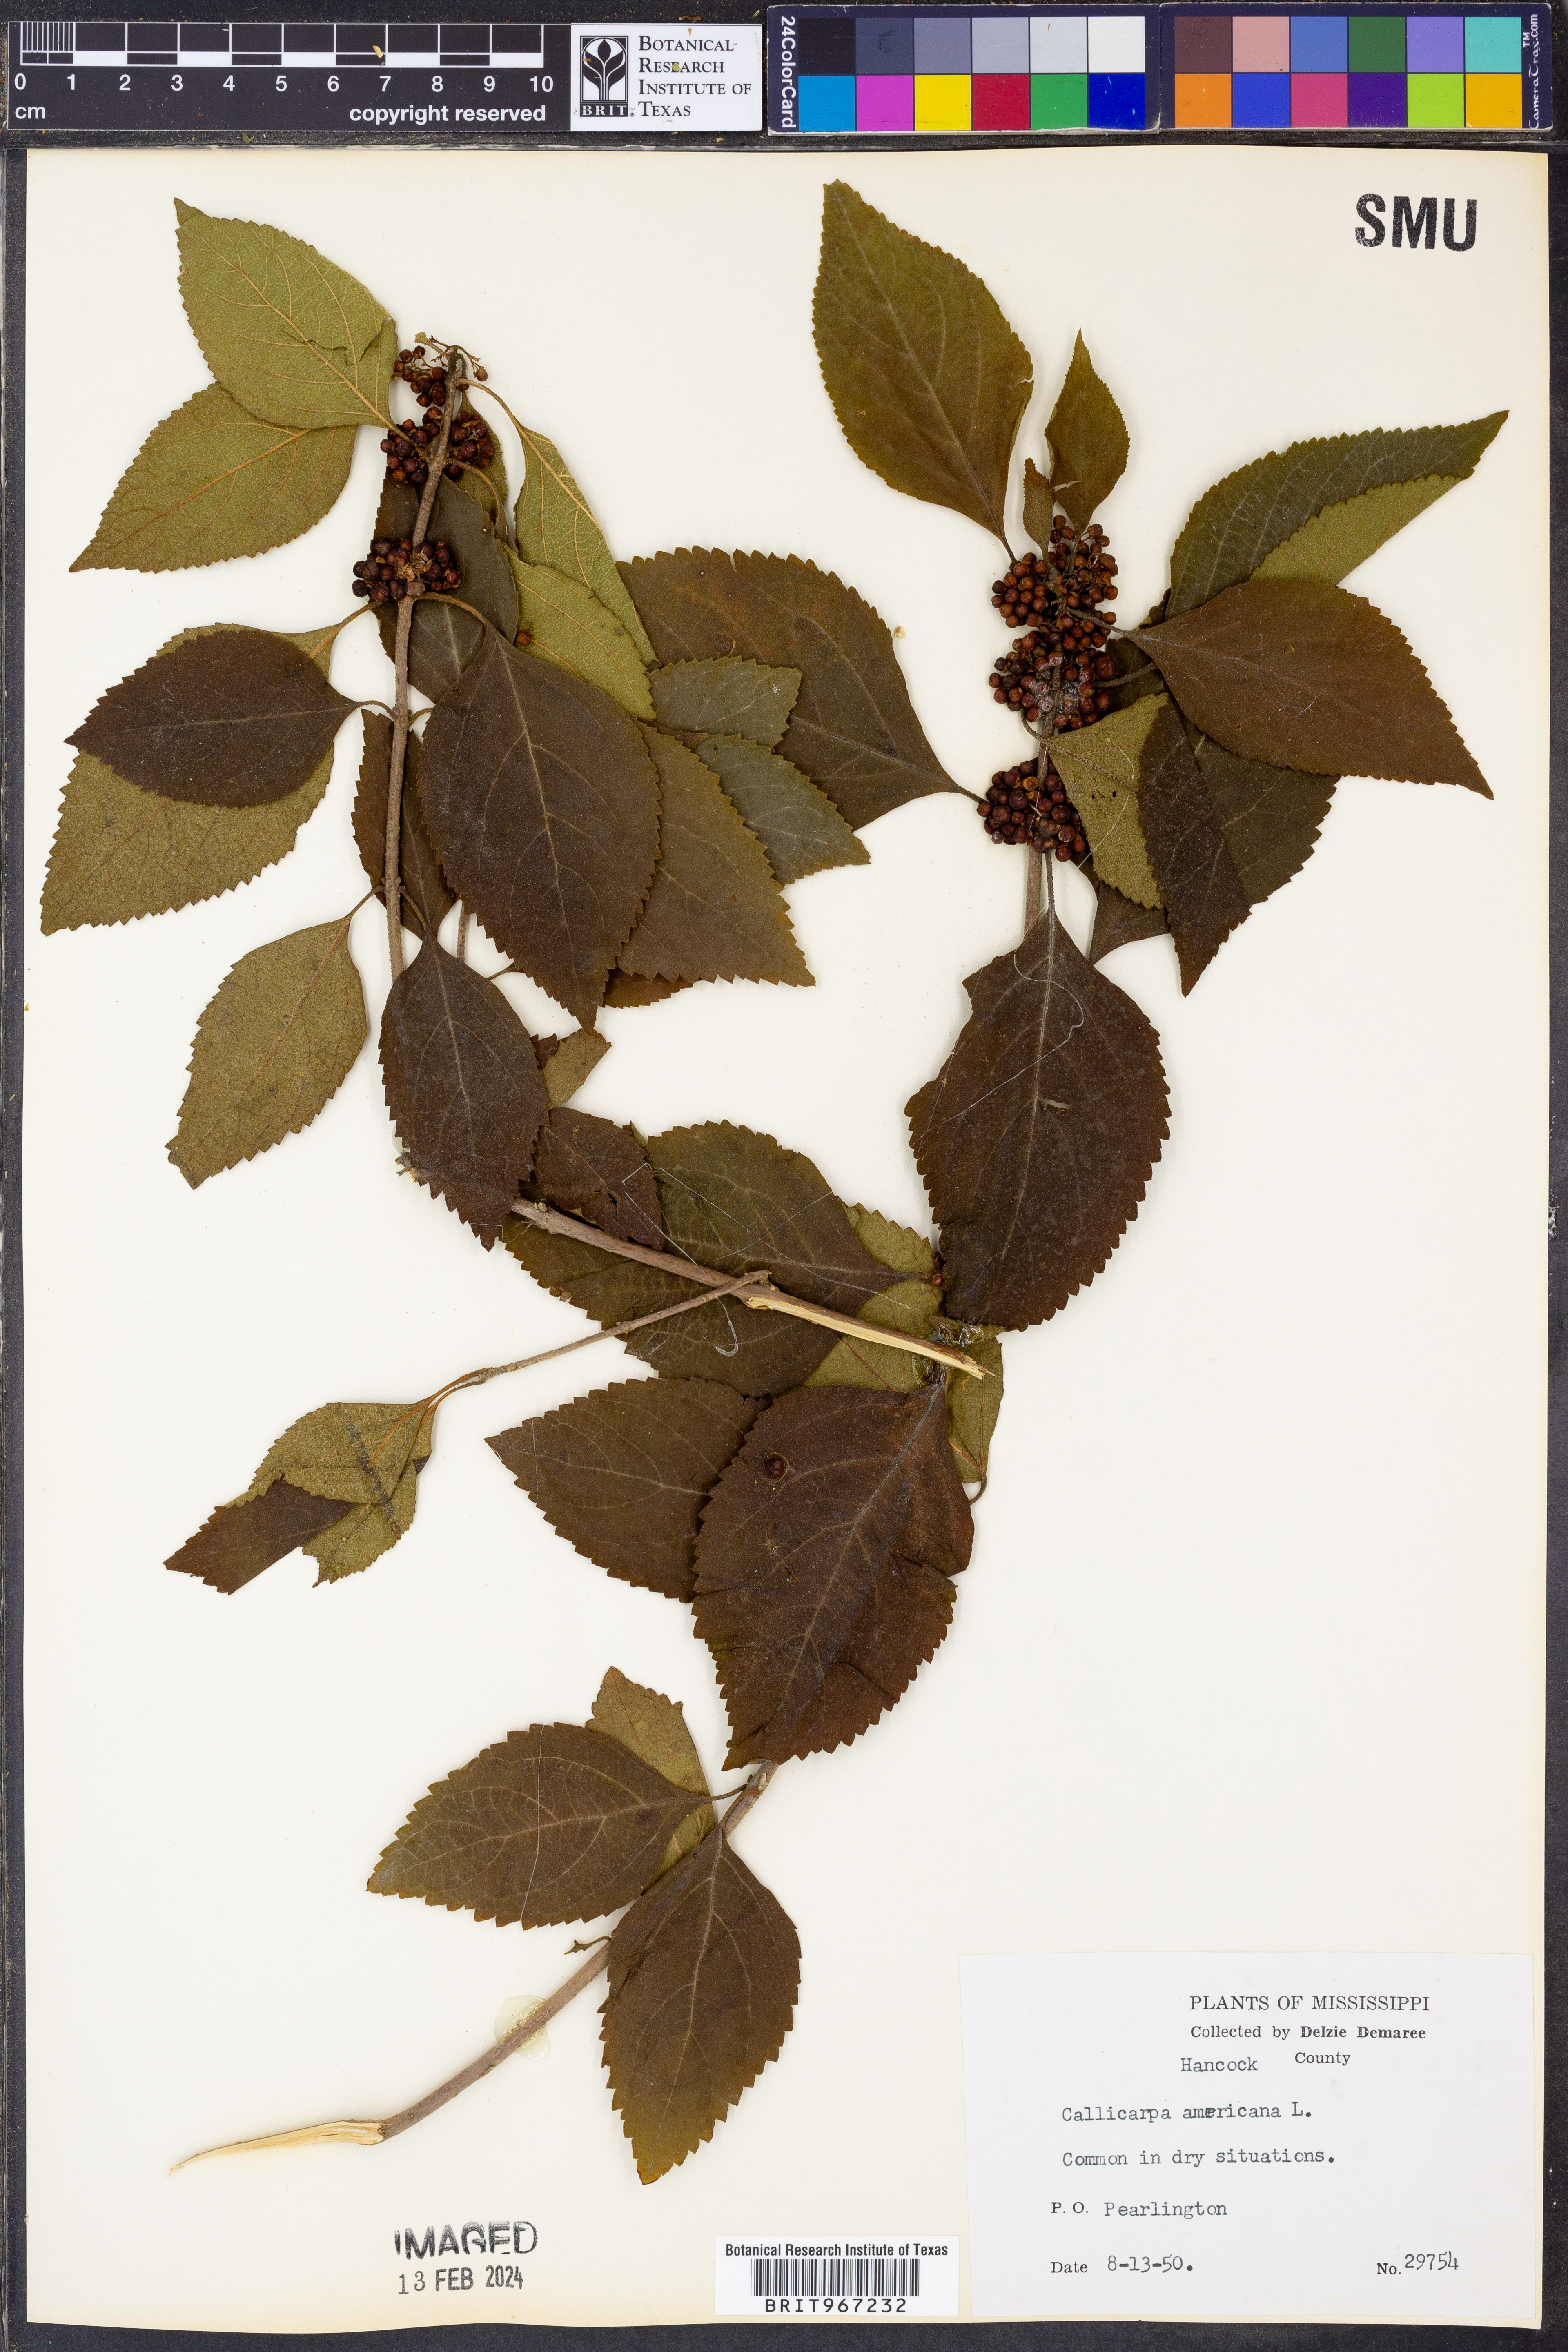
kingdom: Plantae
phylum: Tracheophyta
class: Magnoliopsida
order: Lamiales
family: Lamiaceae
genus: Callicarpa
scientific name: Callicarpa americana
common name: American beautyberry
